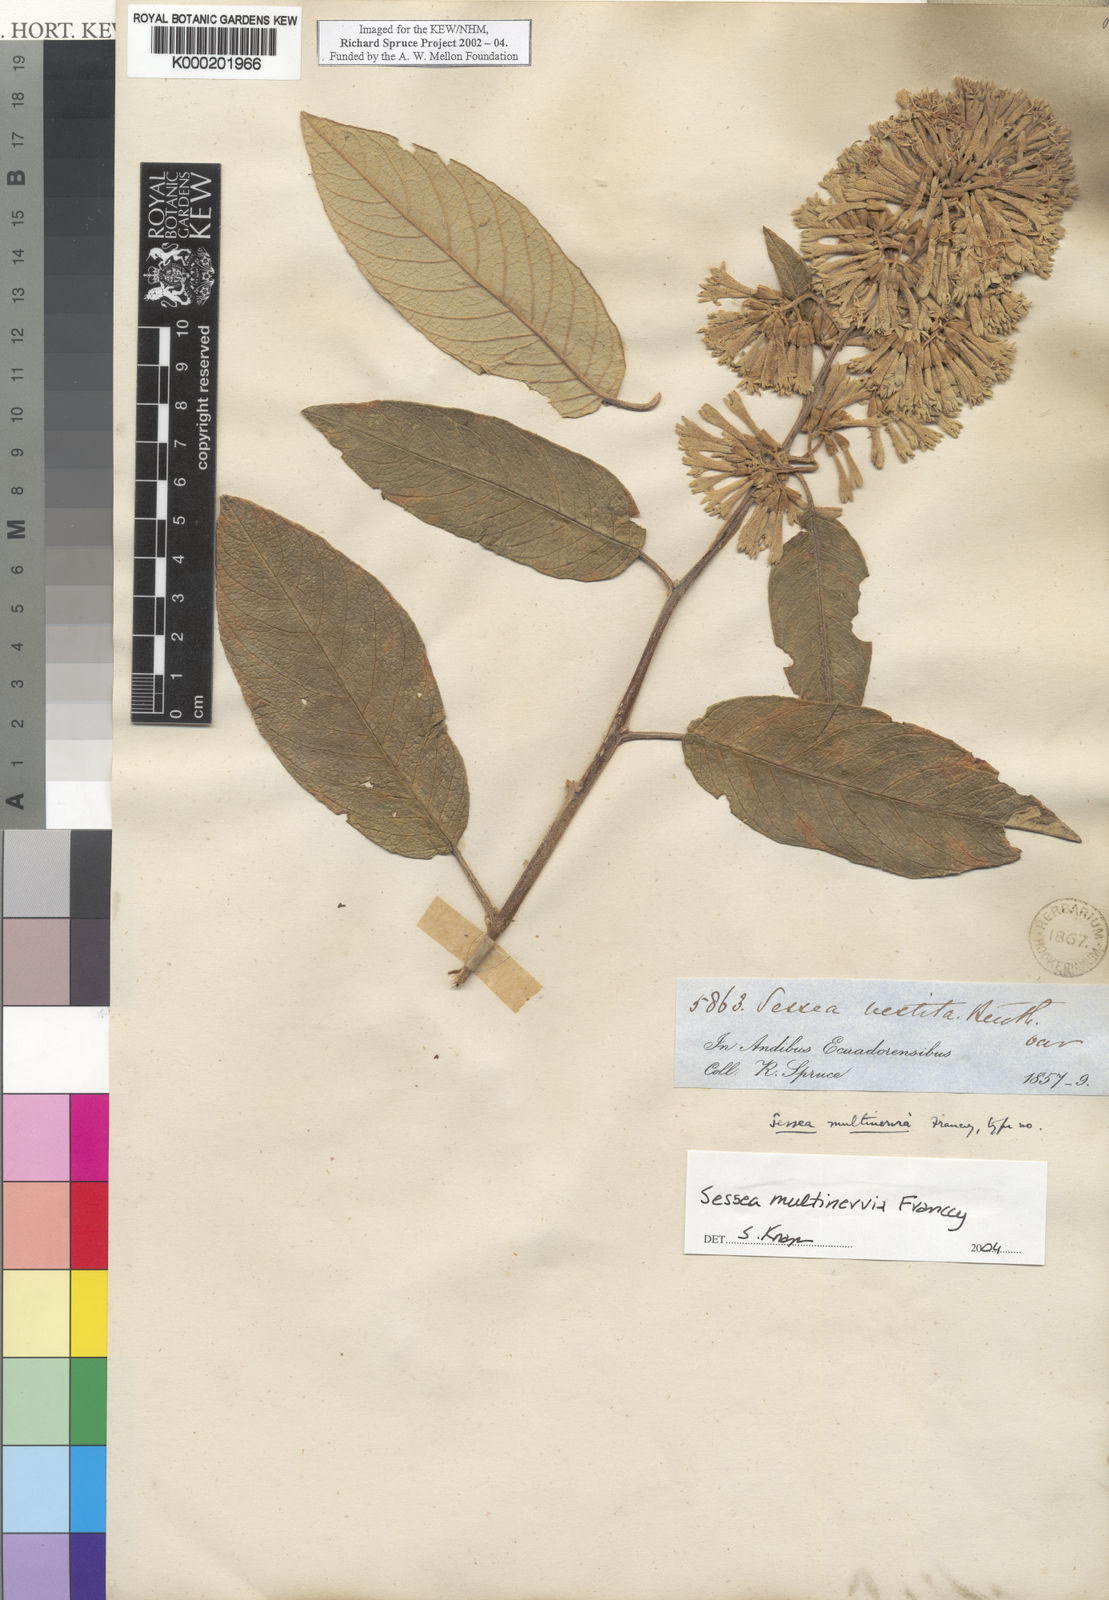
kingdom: Plantae
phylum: Tracheophyta
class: Magnoliopsida
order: Solanales
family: Solanaceae
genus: Sessea
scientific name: Sessea multinervia
